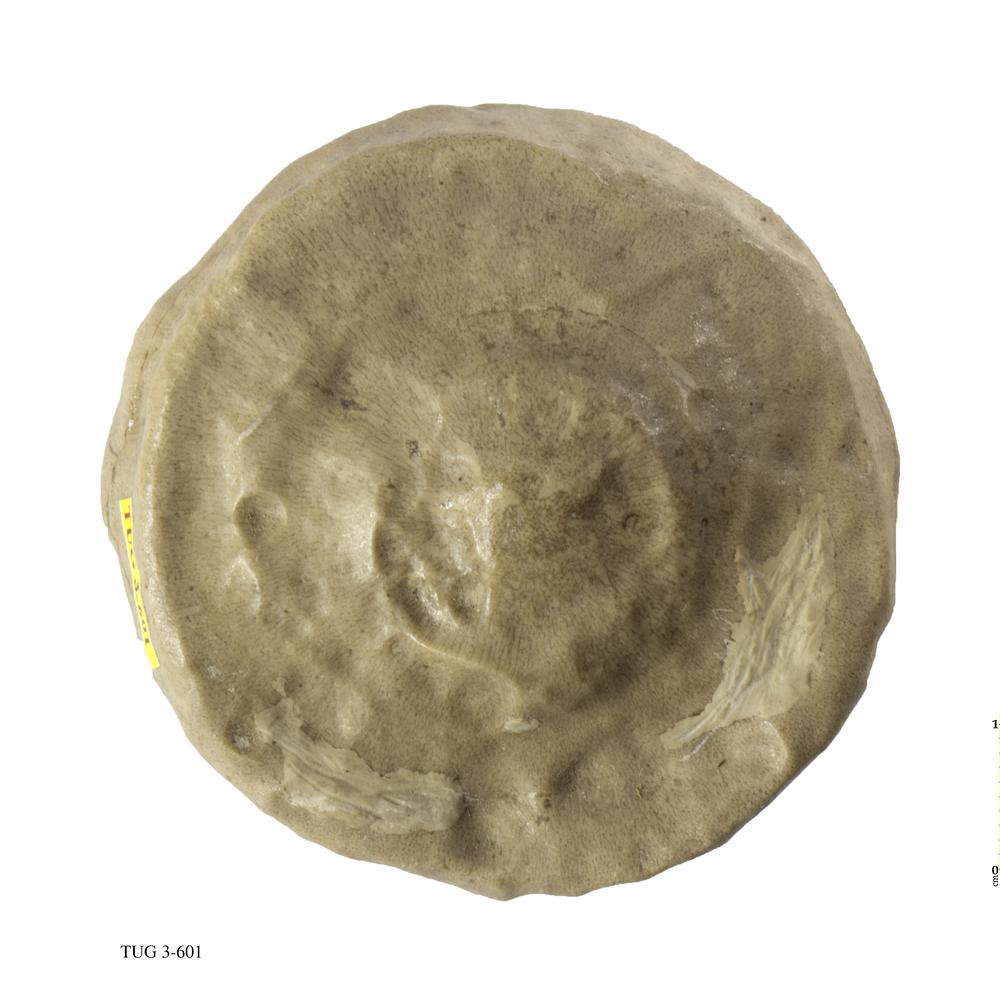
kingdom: Animalia
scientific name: Animalia
